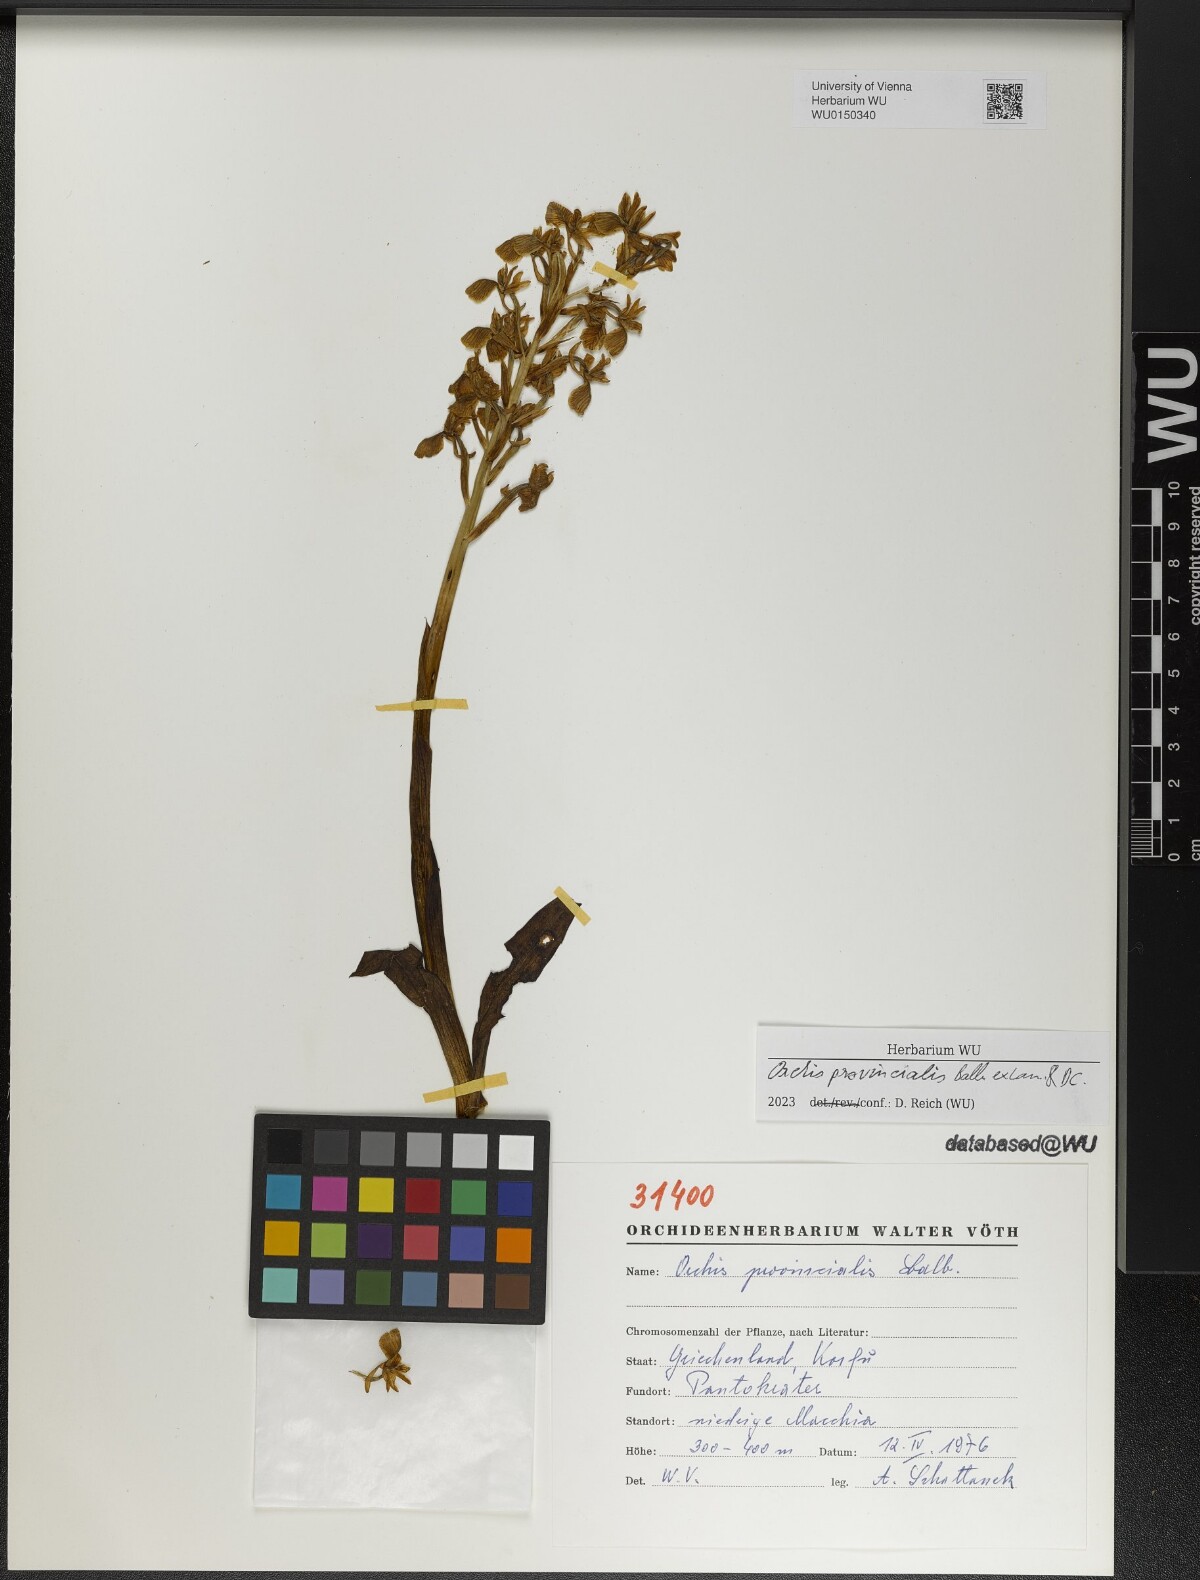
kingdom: Plantae
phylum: Tracheophyta
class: Liliopsida
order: Asparagales
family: Orchidaceae
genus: Orchis
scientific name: Orchis provincialis
